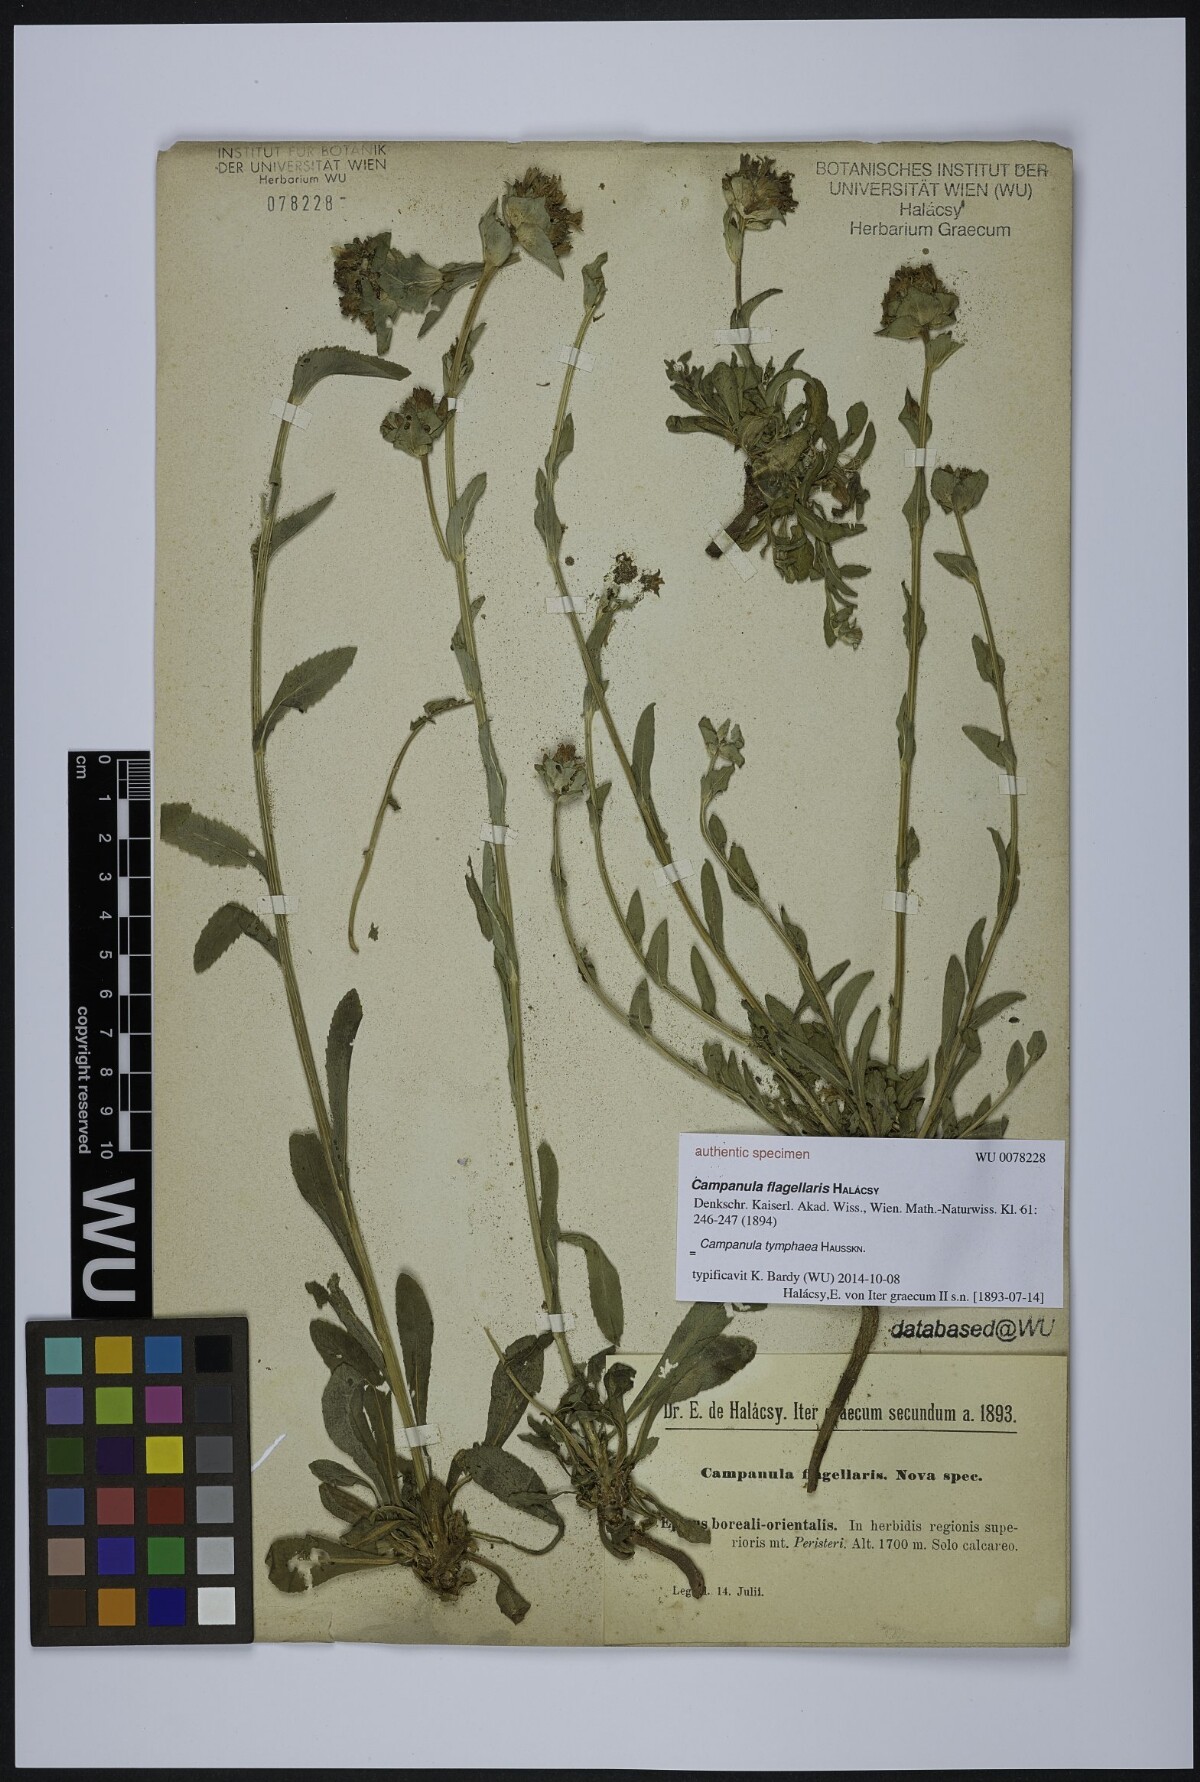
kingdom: Plantae
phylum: Tracheophyta
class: Magnoliopsida
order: Asterales
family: Campanulaceae
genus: Campanula
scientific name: Campanula tymphaea
